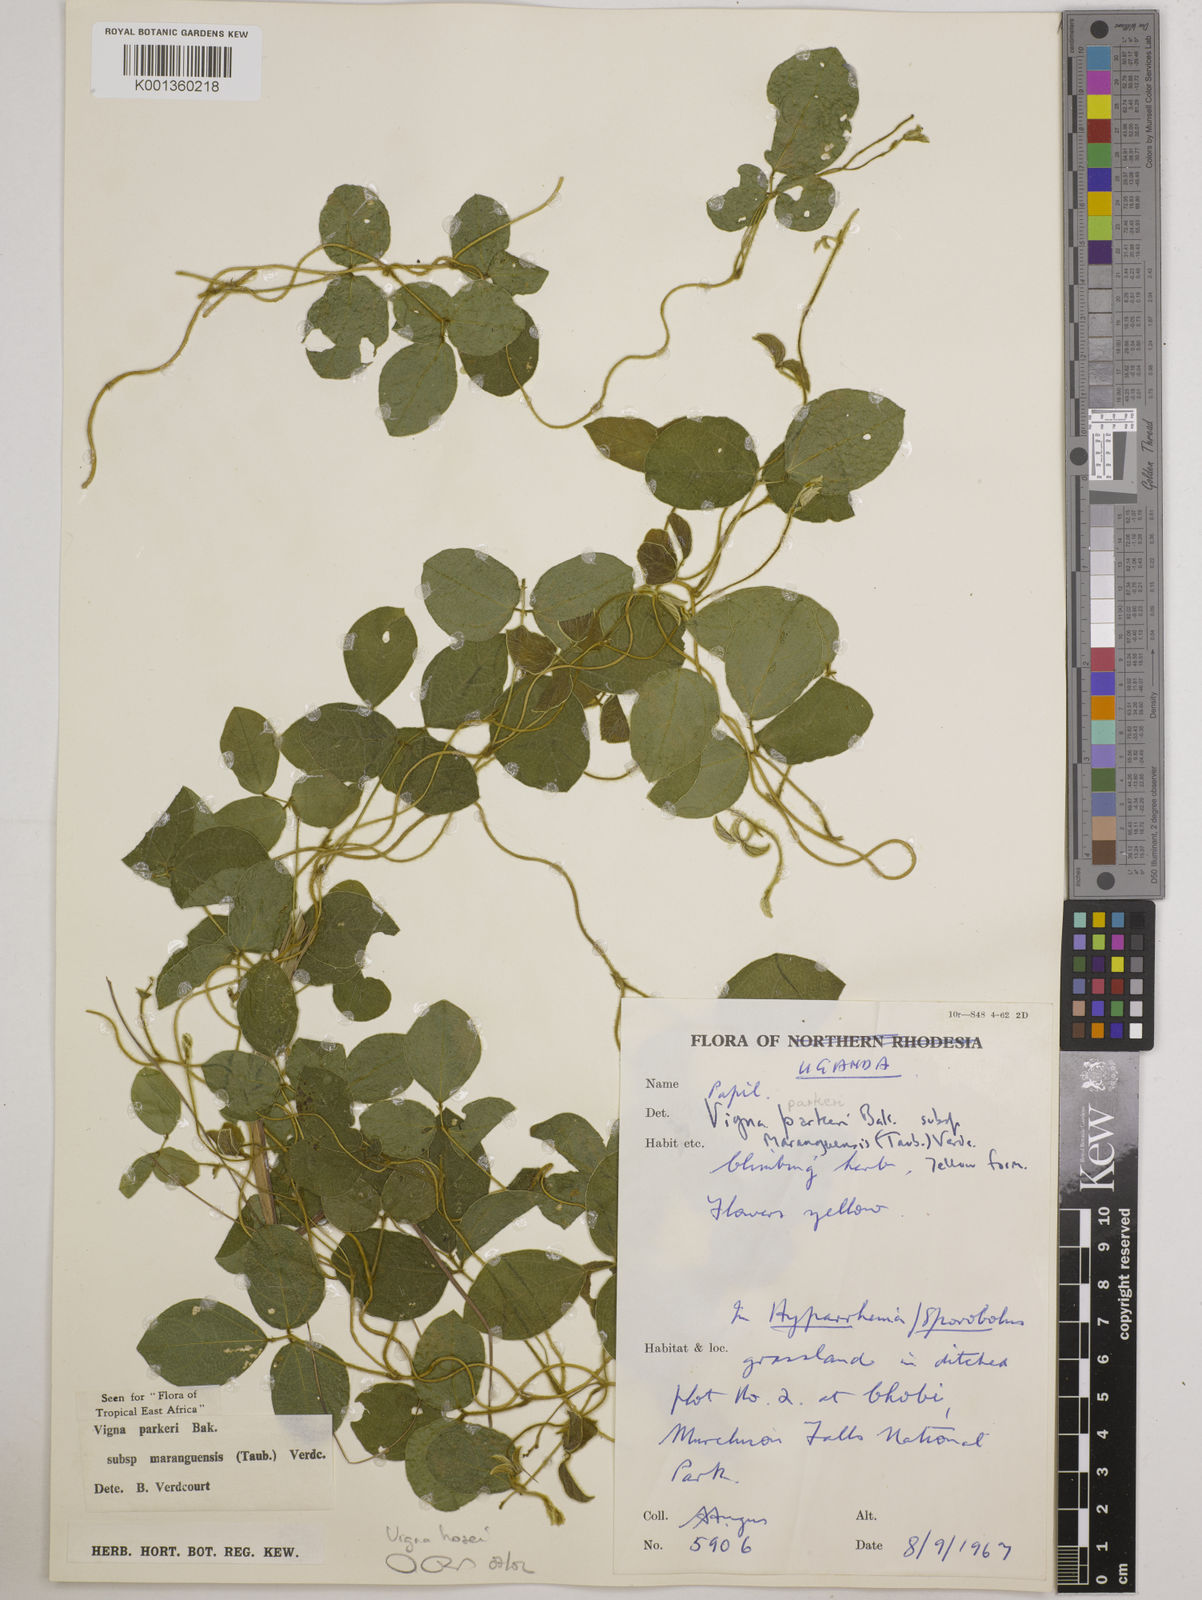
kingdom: Plantae
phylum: Tracheophyta
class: Magnoliopsida
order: Fabales
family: Fabaceae
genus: Vigna
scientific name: Vigna hosei
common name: Sarawak-bean
